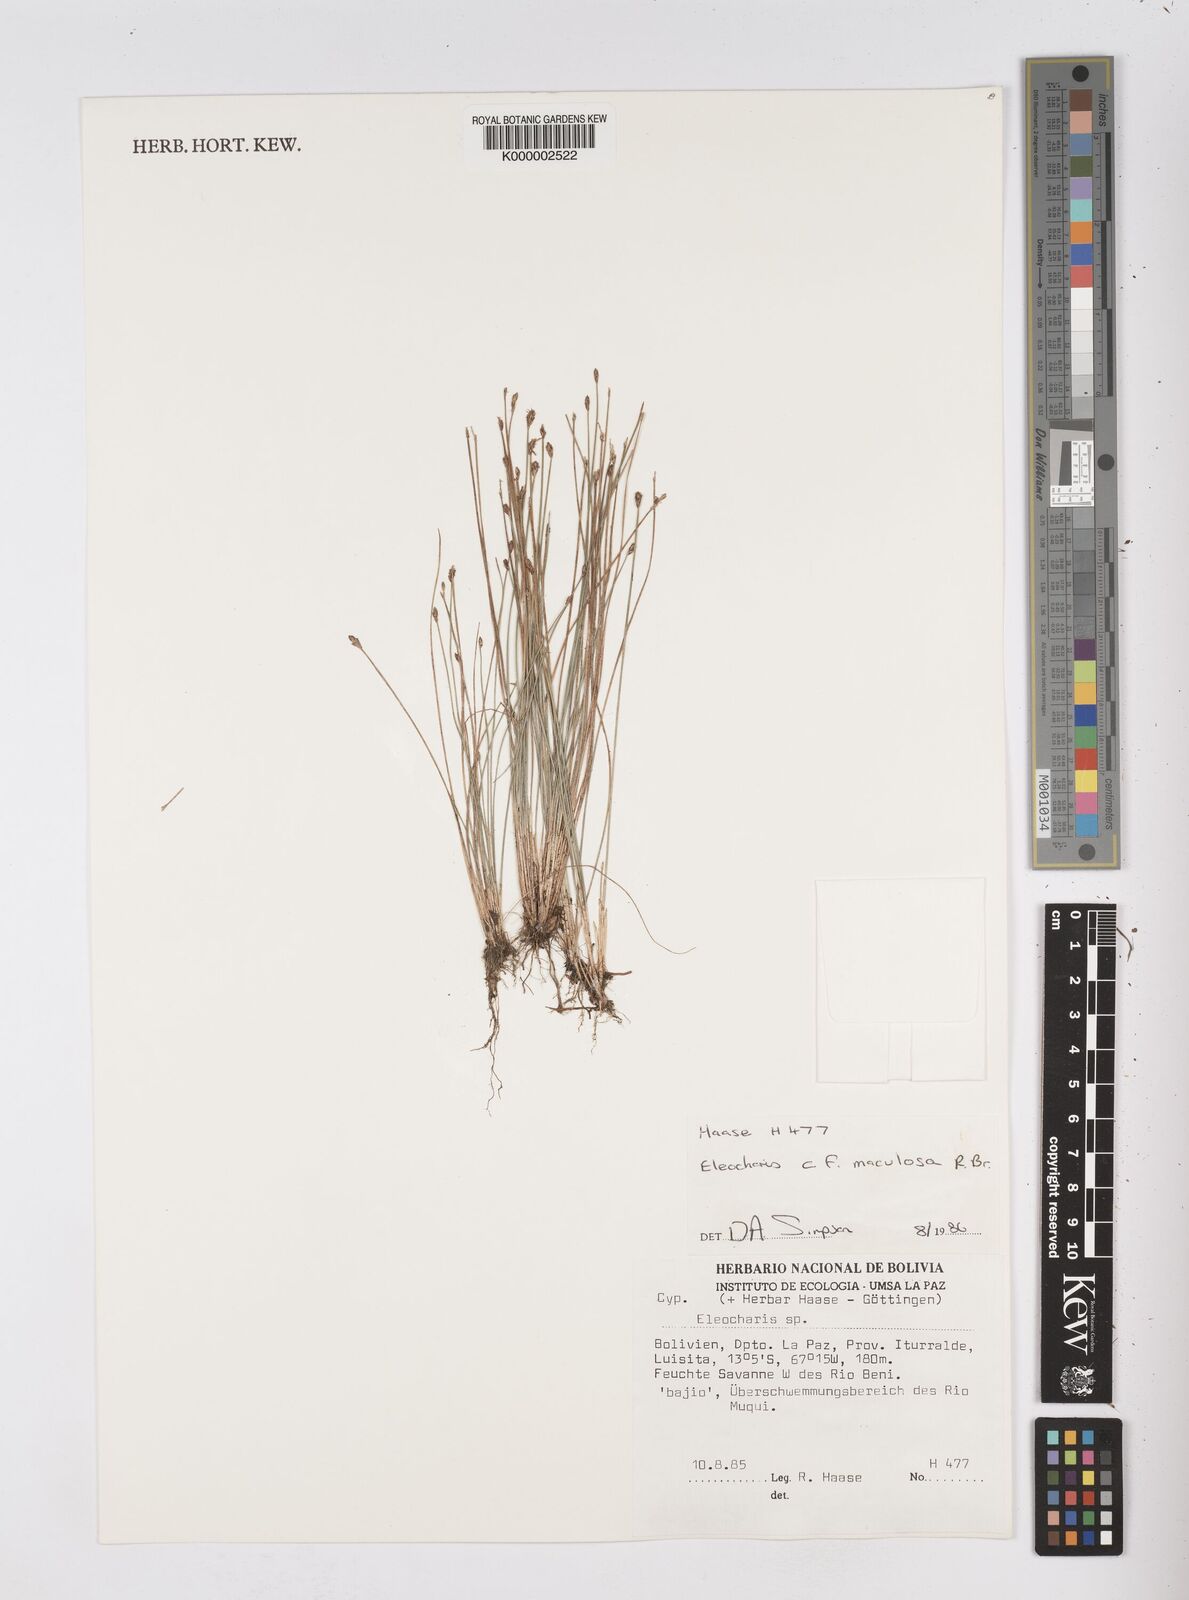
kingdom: Plantae
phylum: Tracheophyta
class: Liliopsida
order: Poales
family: Cyperaceae
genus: Eleocharis
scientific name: Eleocharis maculosa
